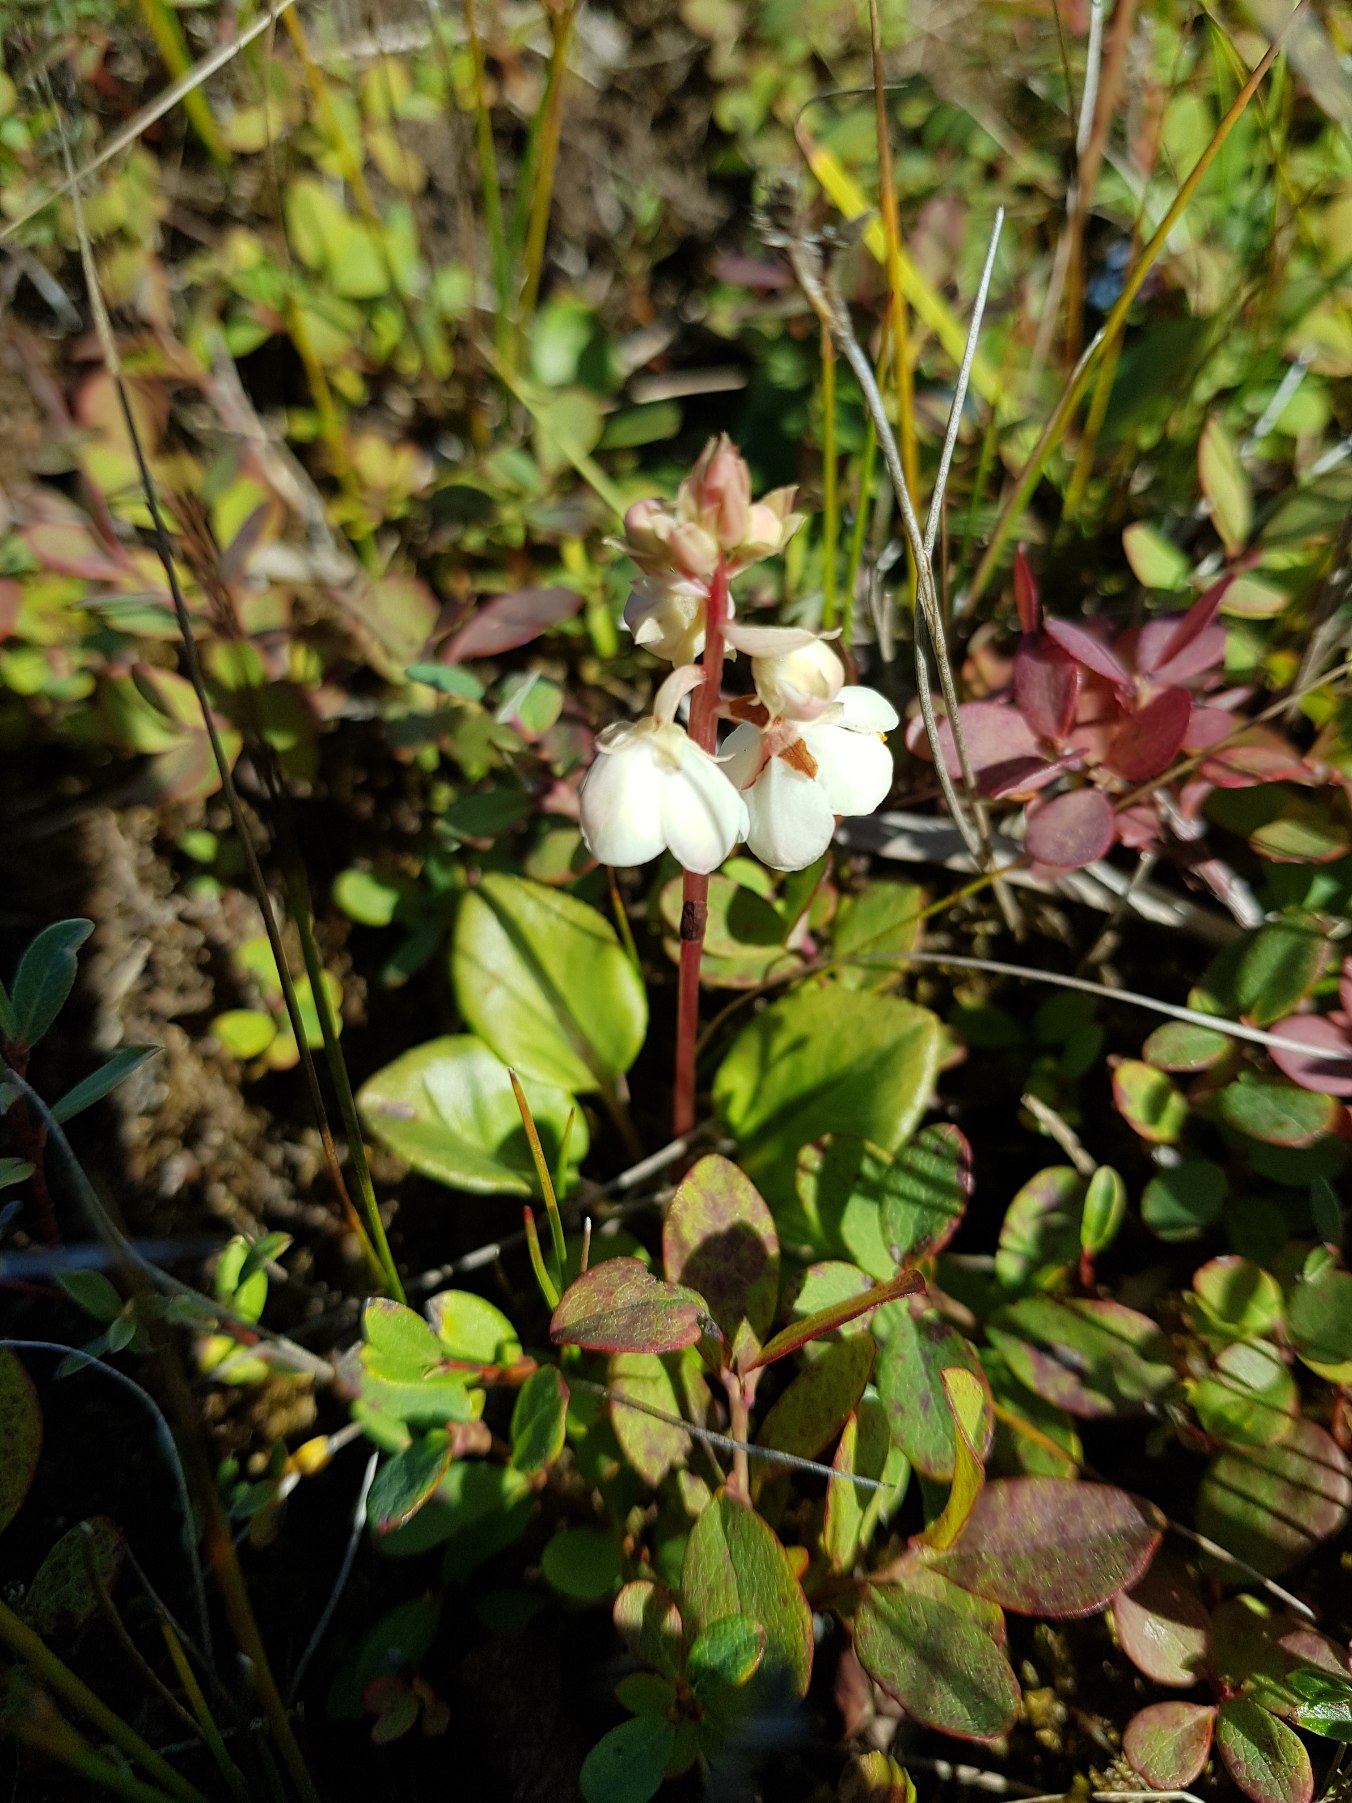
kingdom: Plantae
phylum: Tracheophyta
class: Magnoliopsida
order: Ericales
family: Ericaceae
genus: Pyrola
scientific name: Pyrola rotundifolia
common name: Mose-vintergrøn
